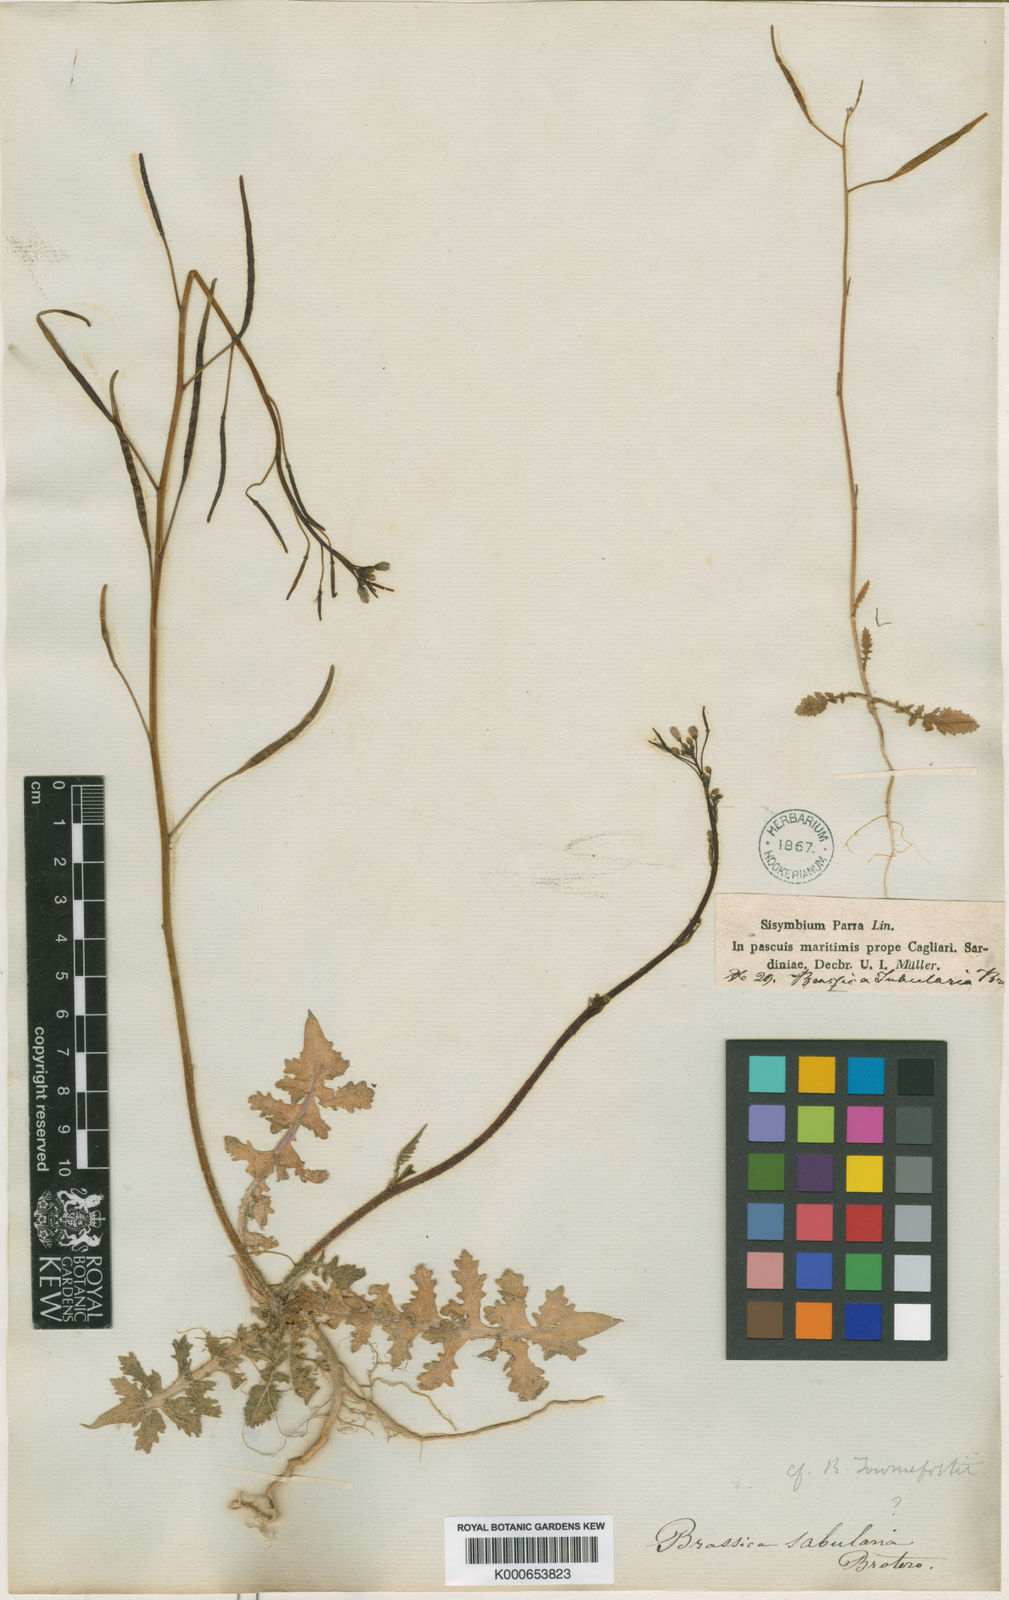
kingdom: Plantae
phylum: Tracheophyta
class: Magnoliopsida
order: Brassicales
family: Brassicaceae
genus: Brassica
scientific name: Brassica tournefortii
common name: Pale cabbage
